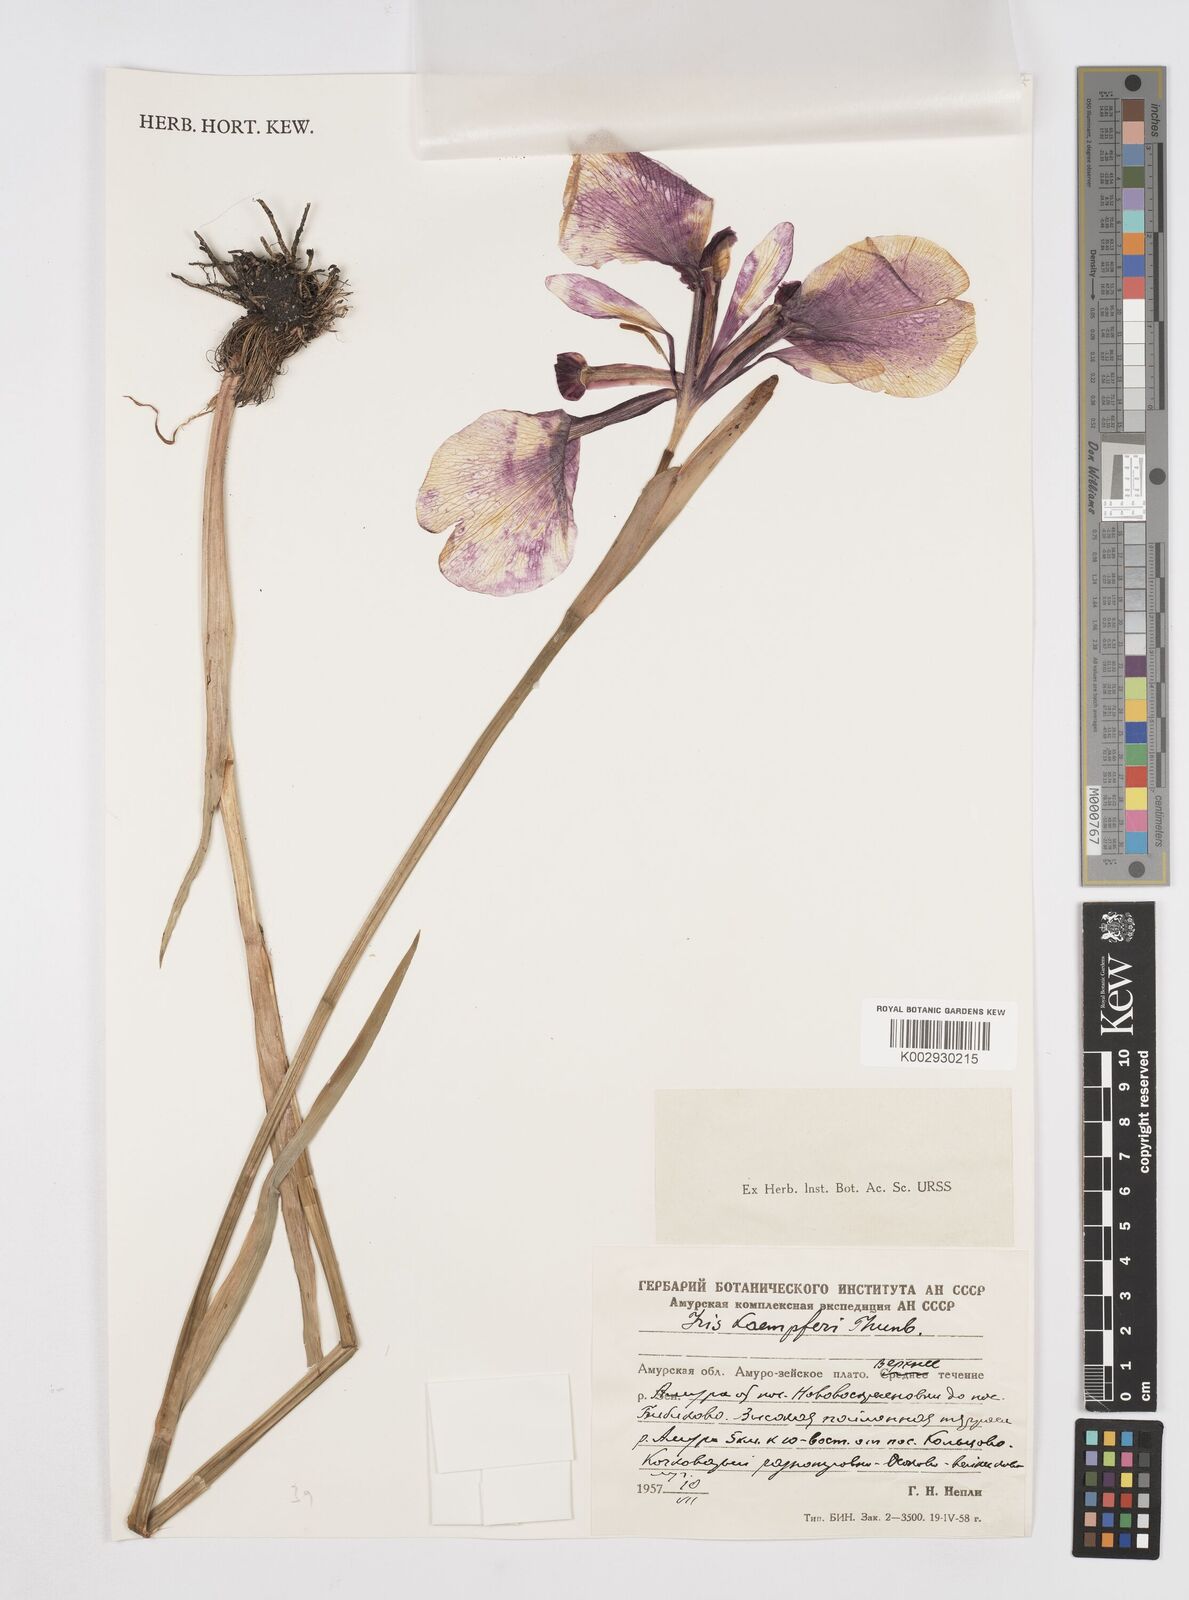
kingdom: Plantae
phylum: Tracheophyta
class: Liliopsida
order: Asparagales
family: Iridaceae
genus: Iris
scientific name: Iris ensata
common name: Beaked iris
